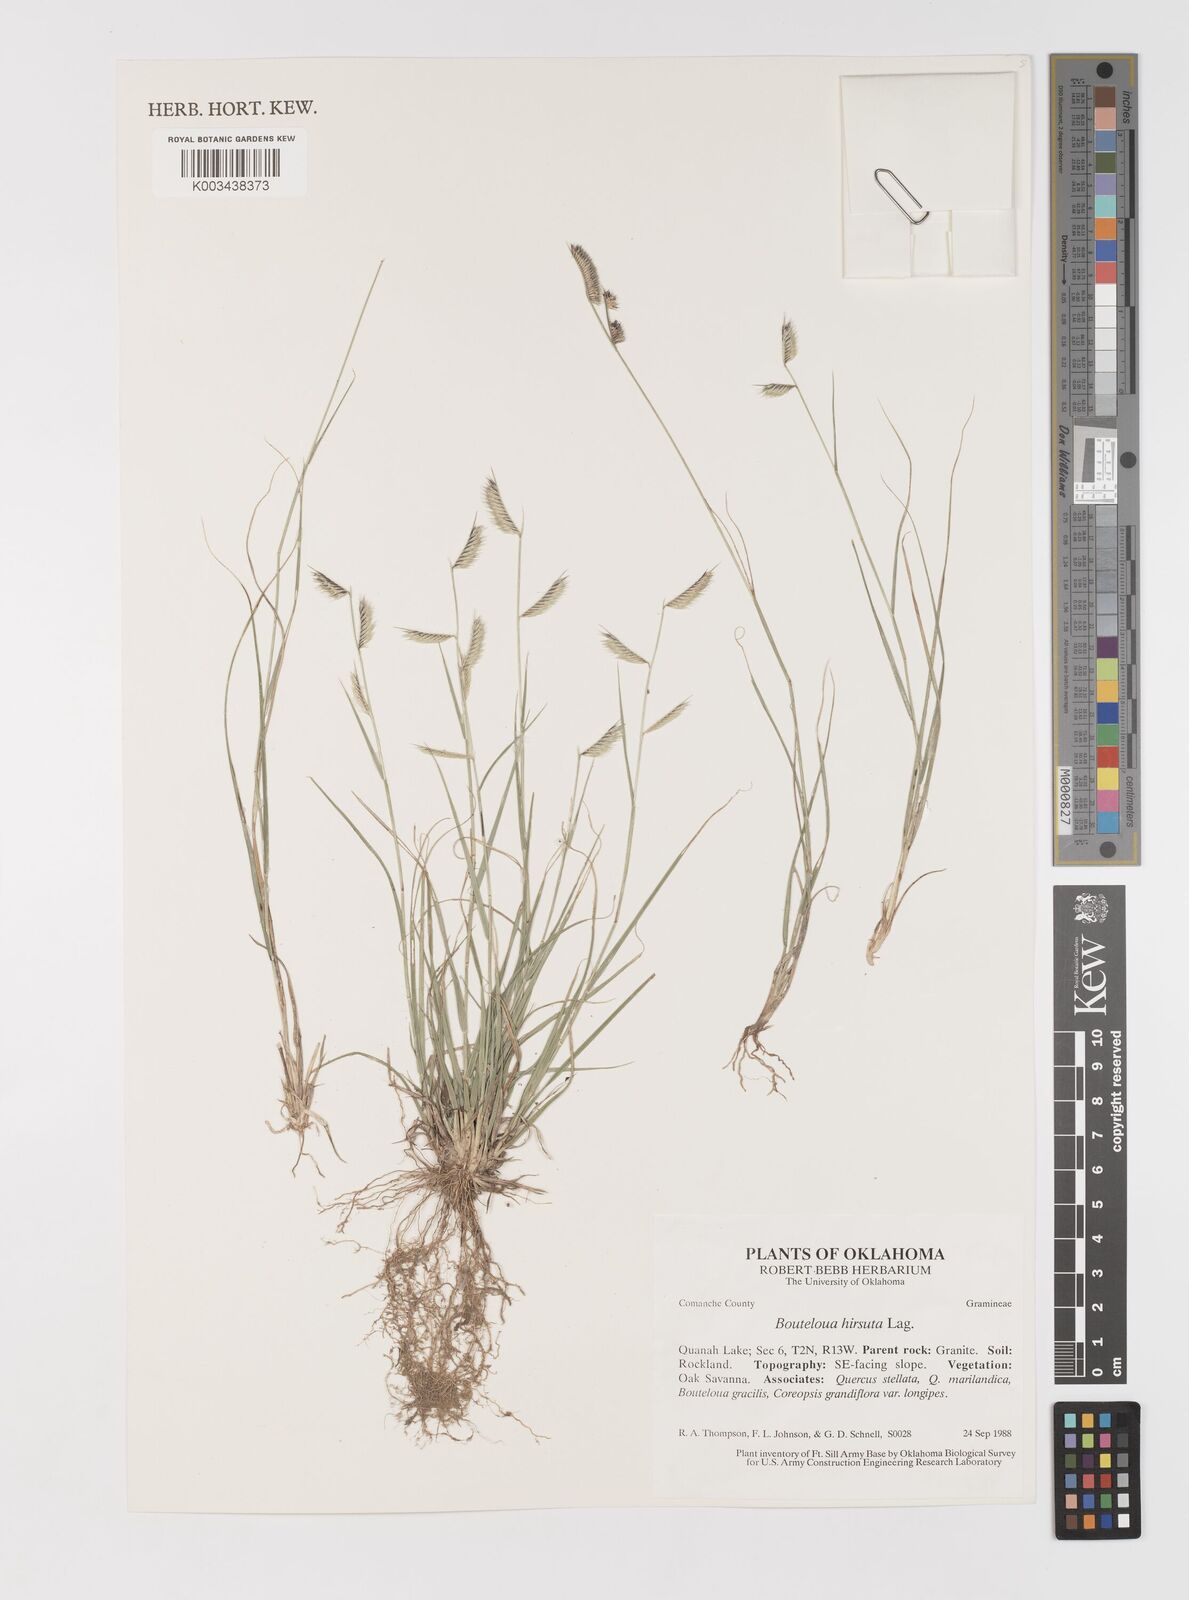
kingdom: Plantae
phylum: Tracheophyta
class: Liliopsida
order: Poales
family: Poaceae
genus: Bouteloua
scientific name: Bouteloua hirsuta
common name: Hairy grama
